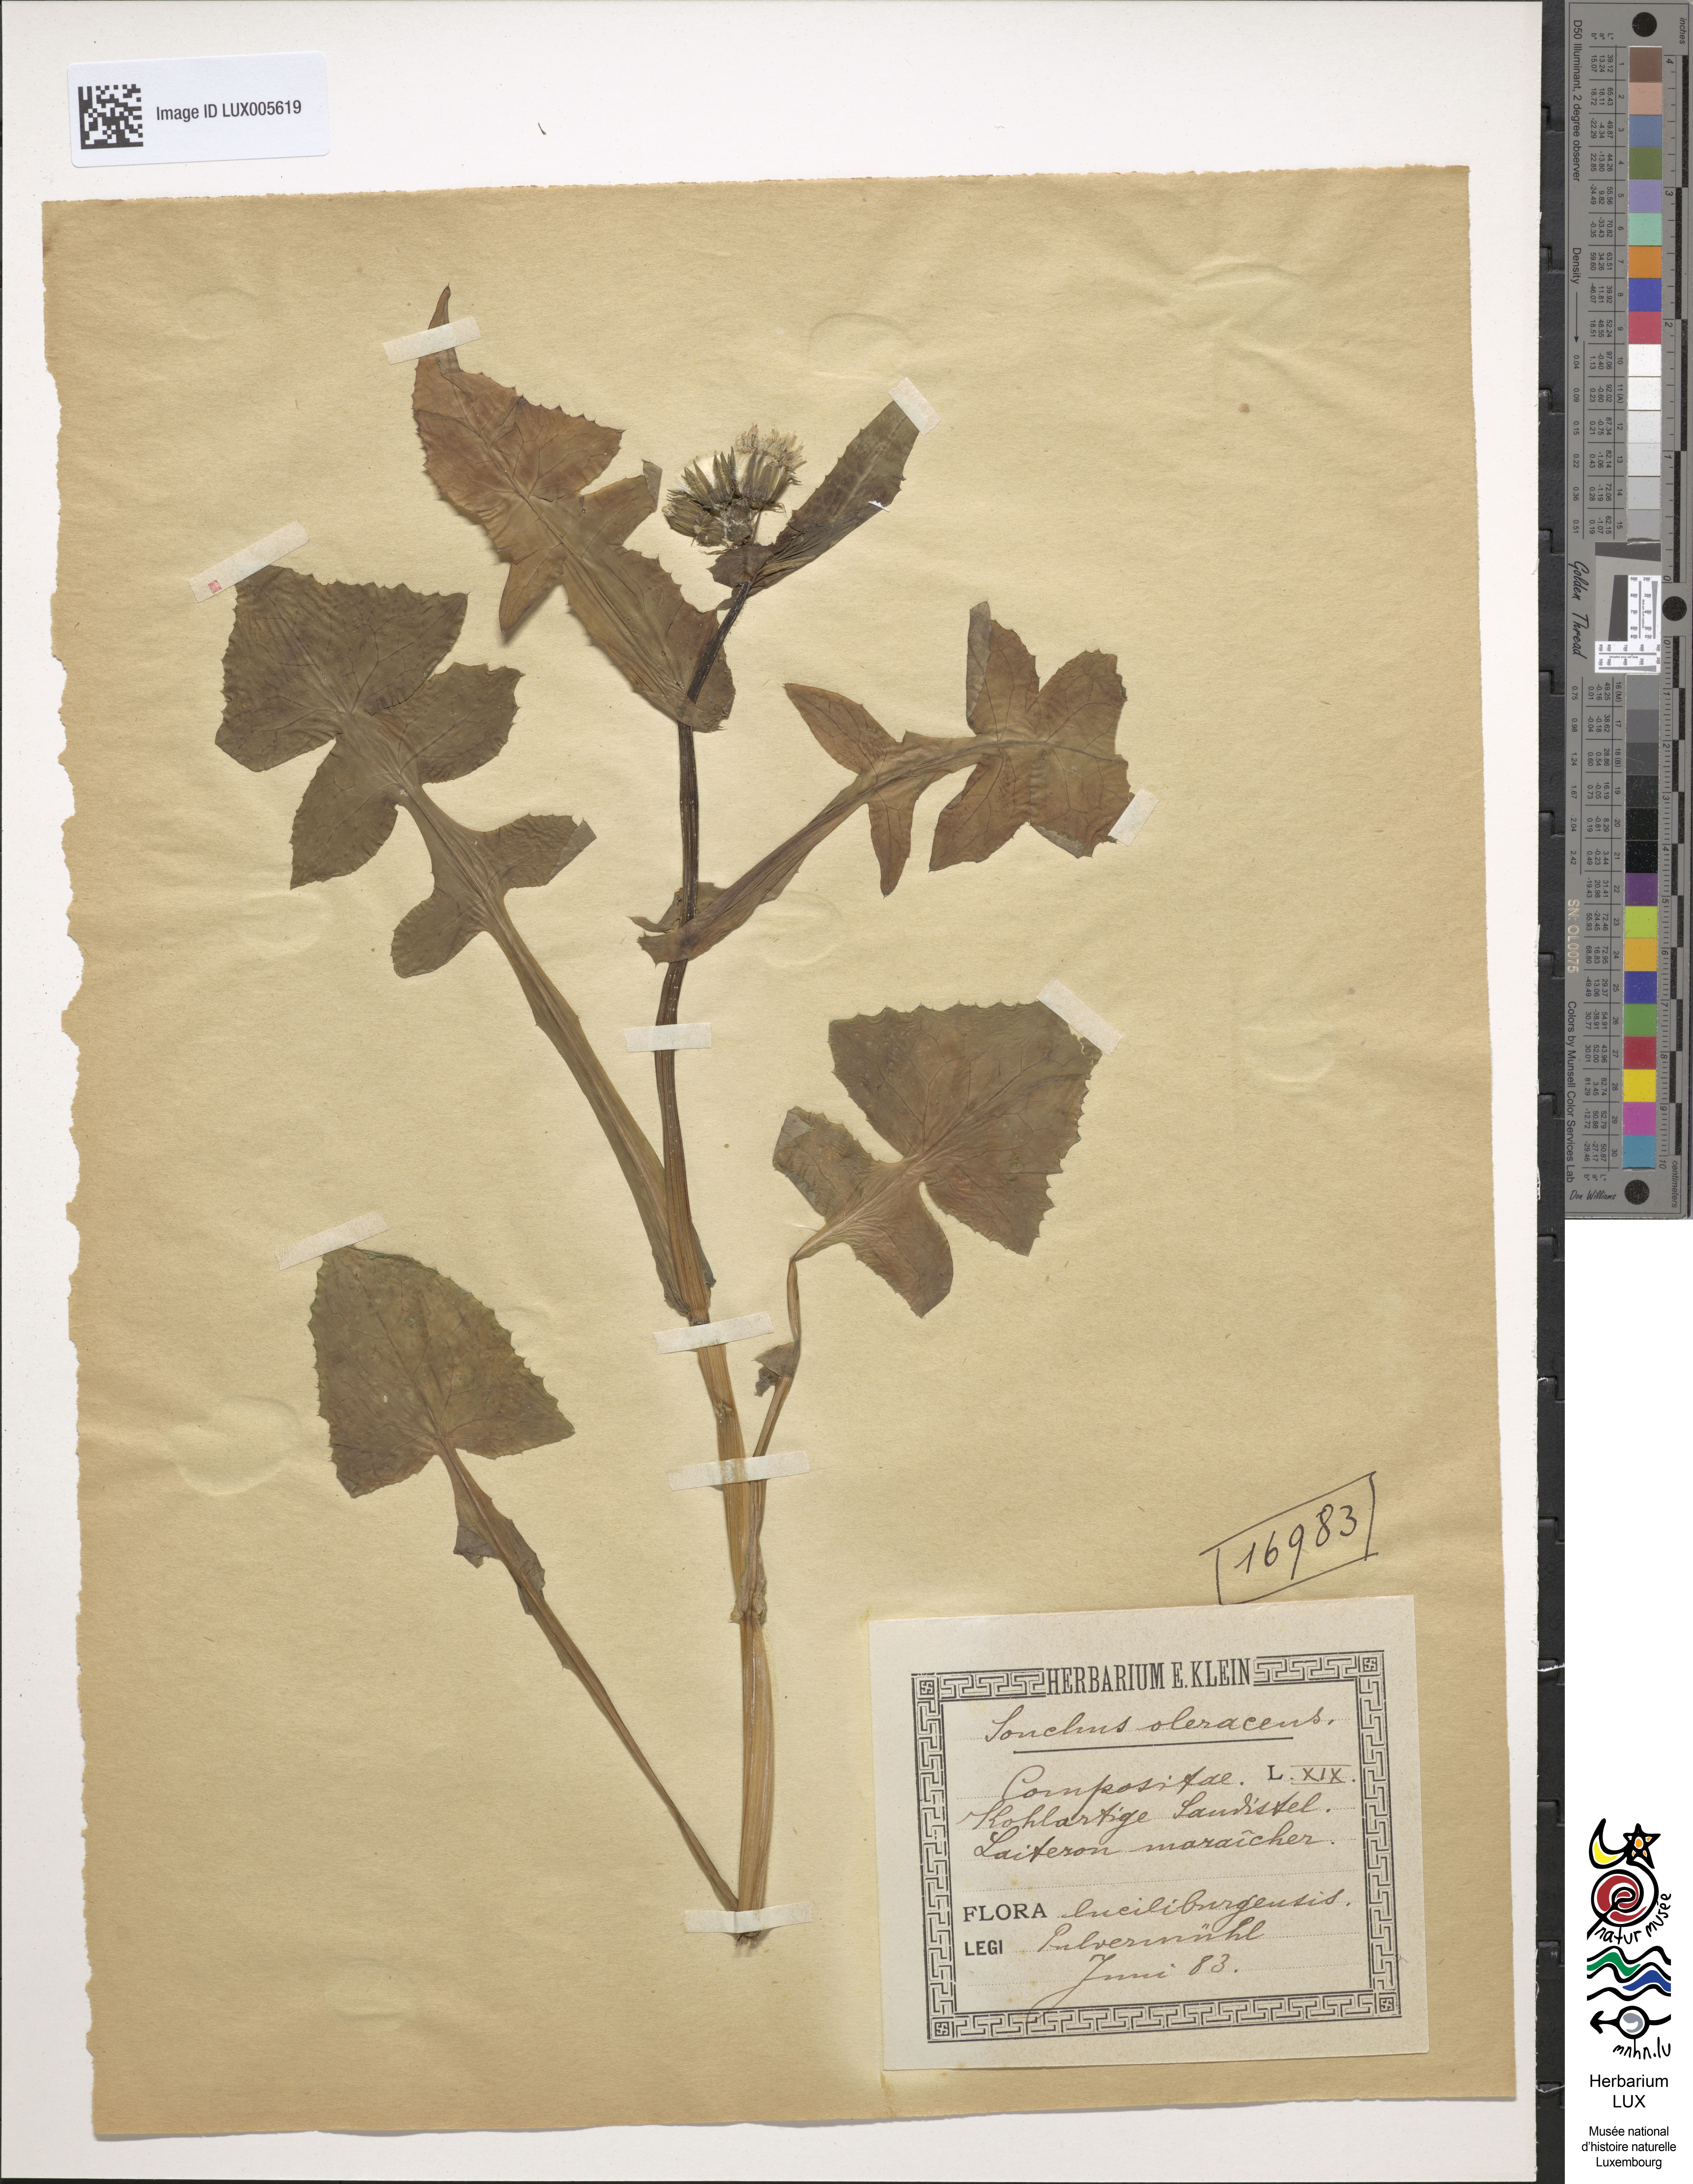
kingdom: Plantae
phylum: Tracheophyta
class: Magnoliopsida
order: Asterales
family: Asteraceae
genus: Sonchus
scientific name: Sonchus oleraceus
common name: Common sowthistle
